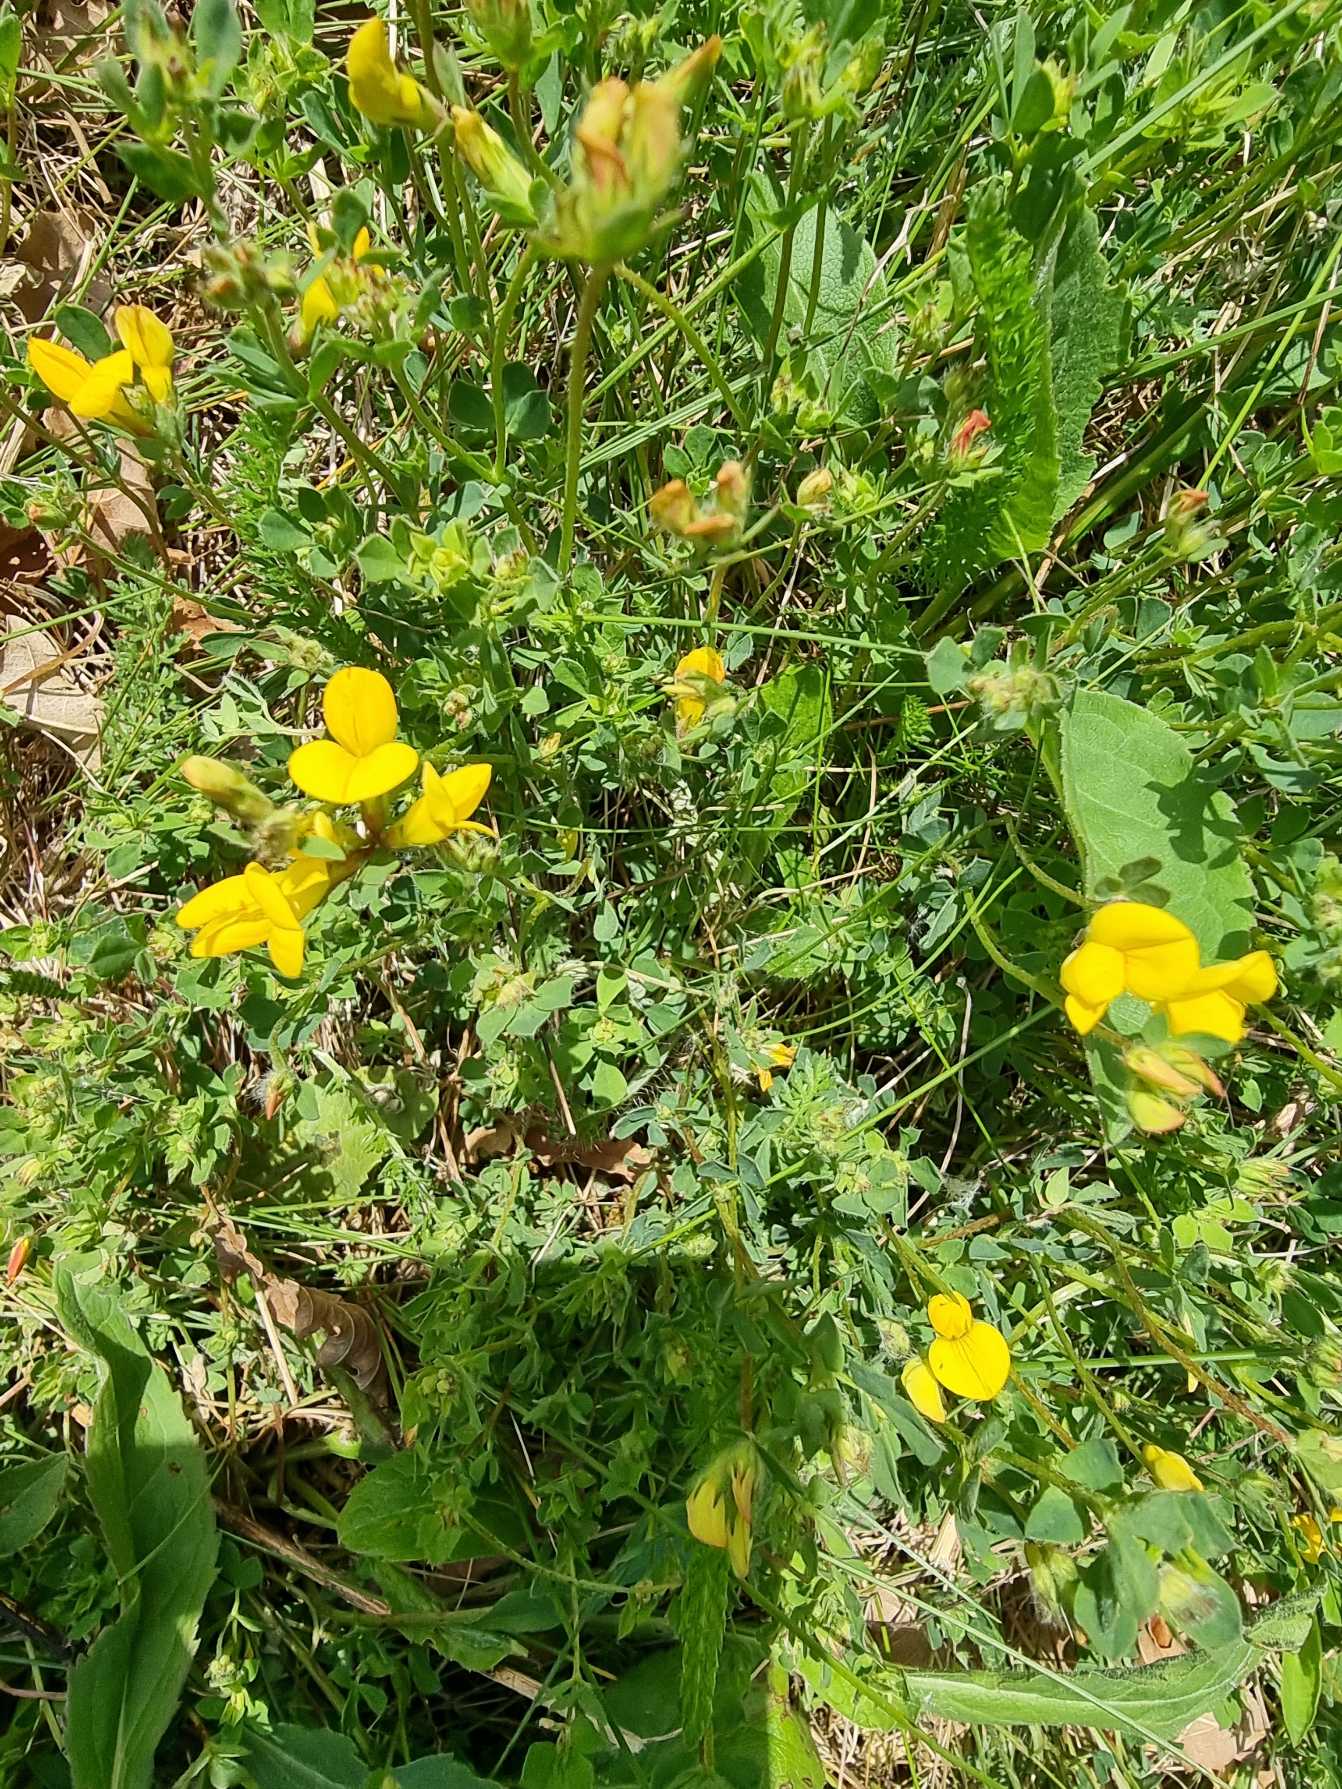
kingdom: Plantae
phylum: Tracheophyta
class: Magnoliopsida
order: Fabales
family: Fabaceae
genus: Lotus
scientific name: Lotus corniculatus
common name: Almindelig kællingetand
